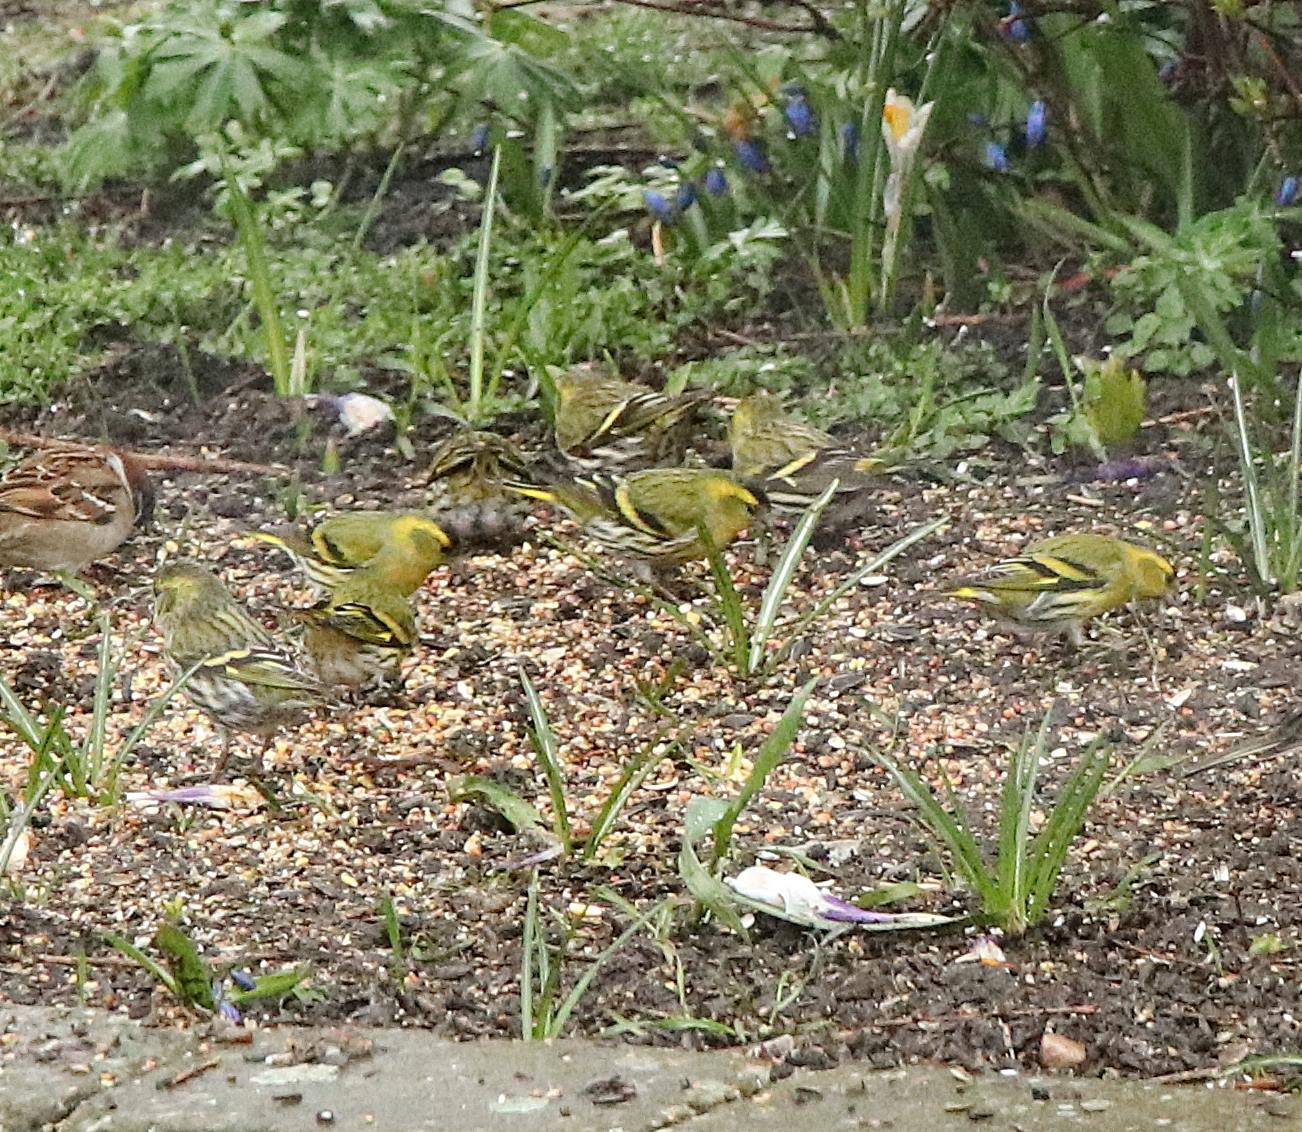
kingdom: Animalia
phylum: Chordata
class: Aves
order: Passeriformes
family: Fringillidae
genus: Spinus
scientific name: Spinus spinus
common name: Grønsisken
